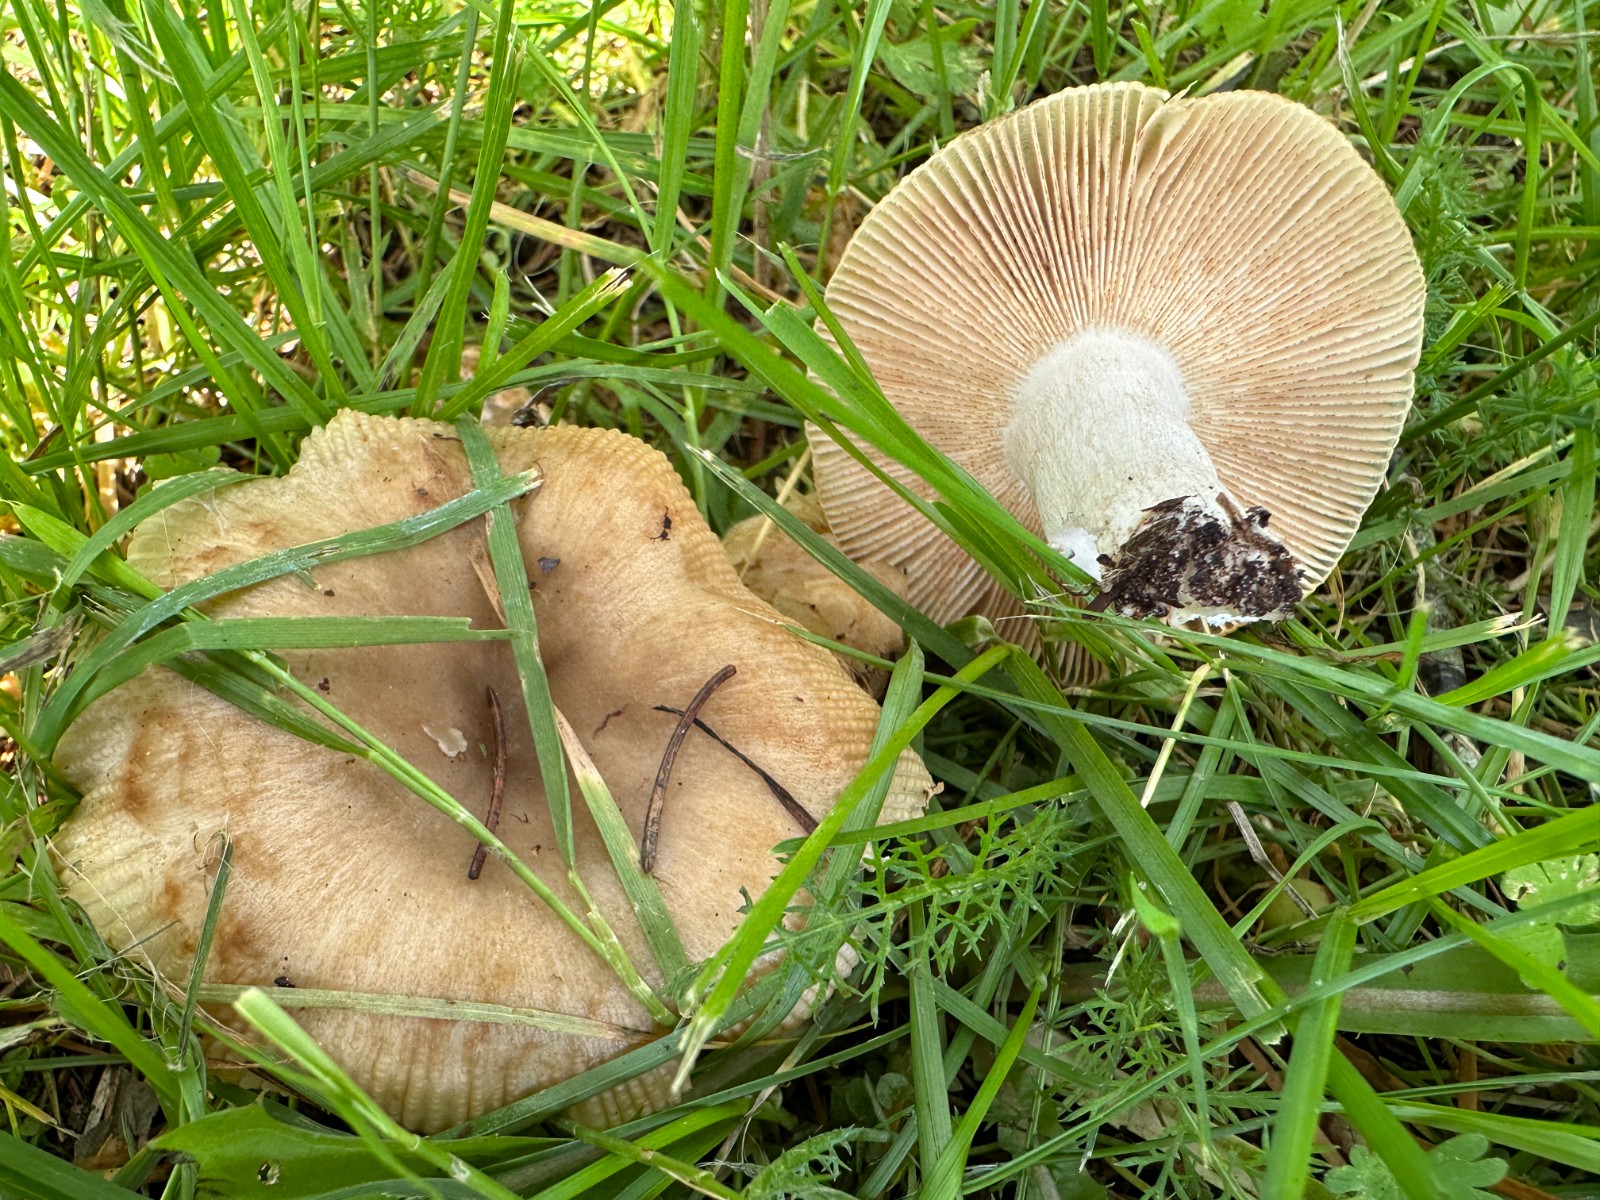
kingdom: Fungi
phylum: Basidiomycota
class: Agaricomycetes
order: Russulales
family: Russulaceae
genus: Russula
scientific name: Russula recondita
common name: mild kam-skørhat
